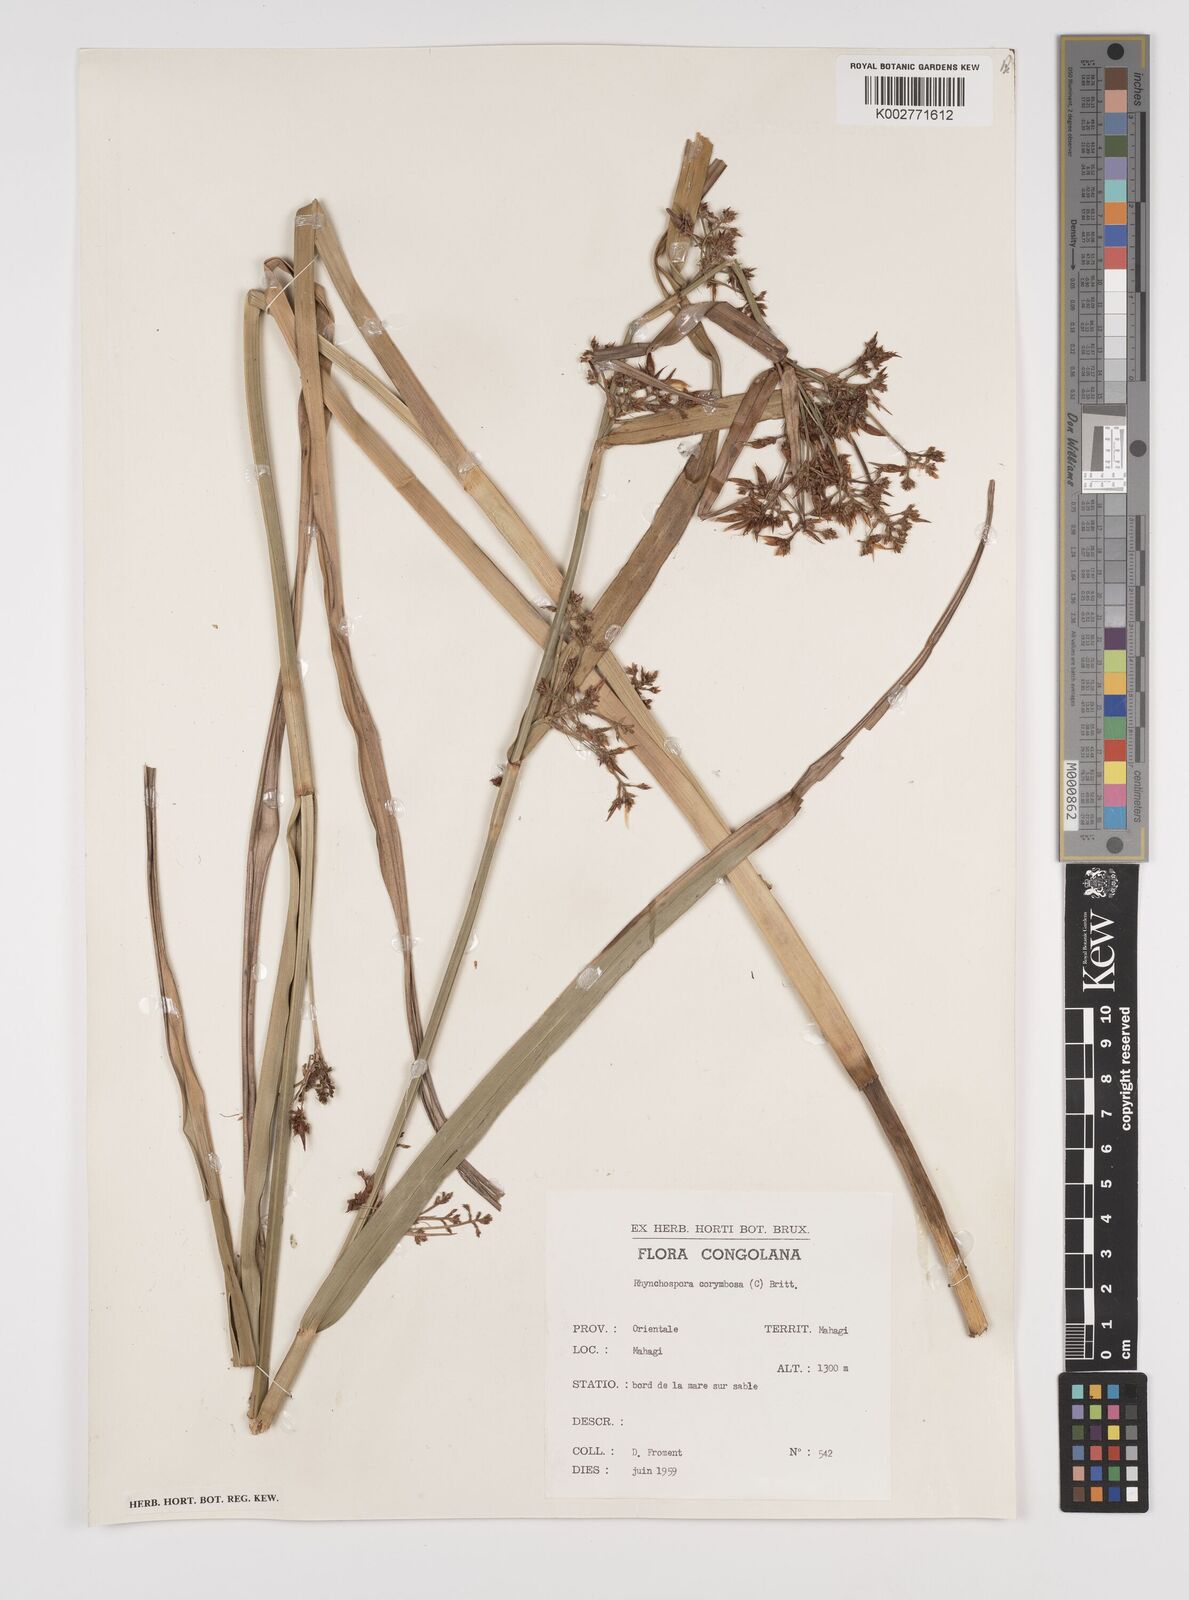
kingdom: Plantae
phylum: Tracheophyta
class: Liliopsida
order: Poales
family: Cyperaceae
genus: Rhynchospora
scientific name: Rhynchospora corymbosa
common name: Golden beak sedge
